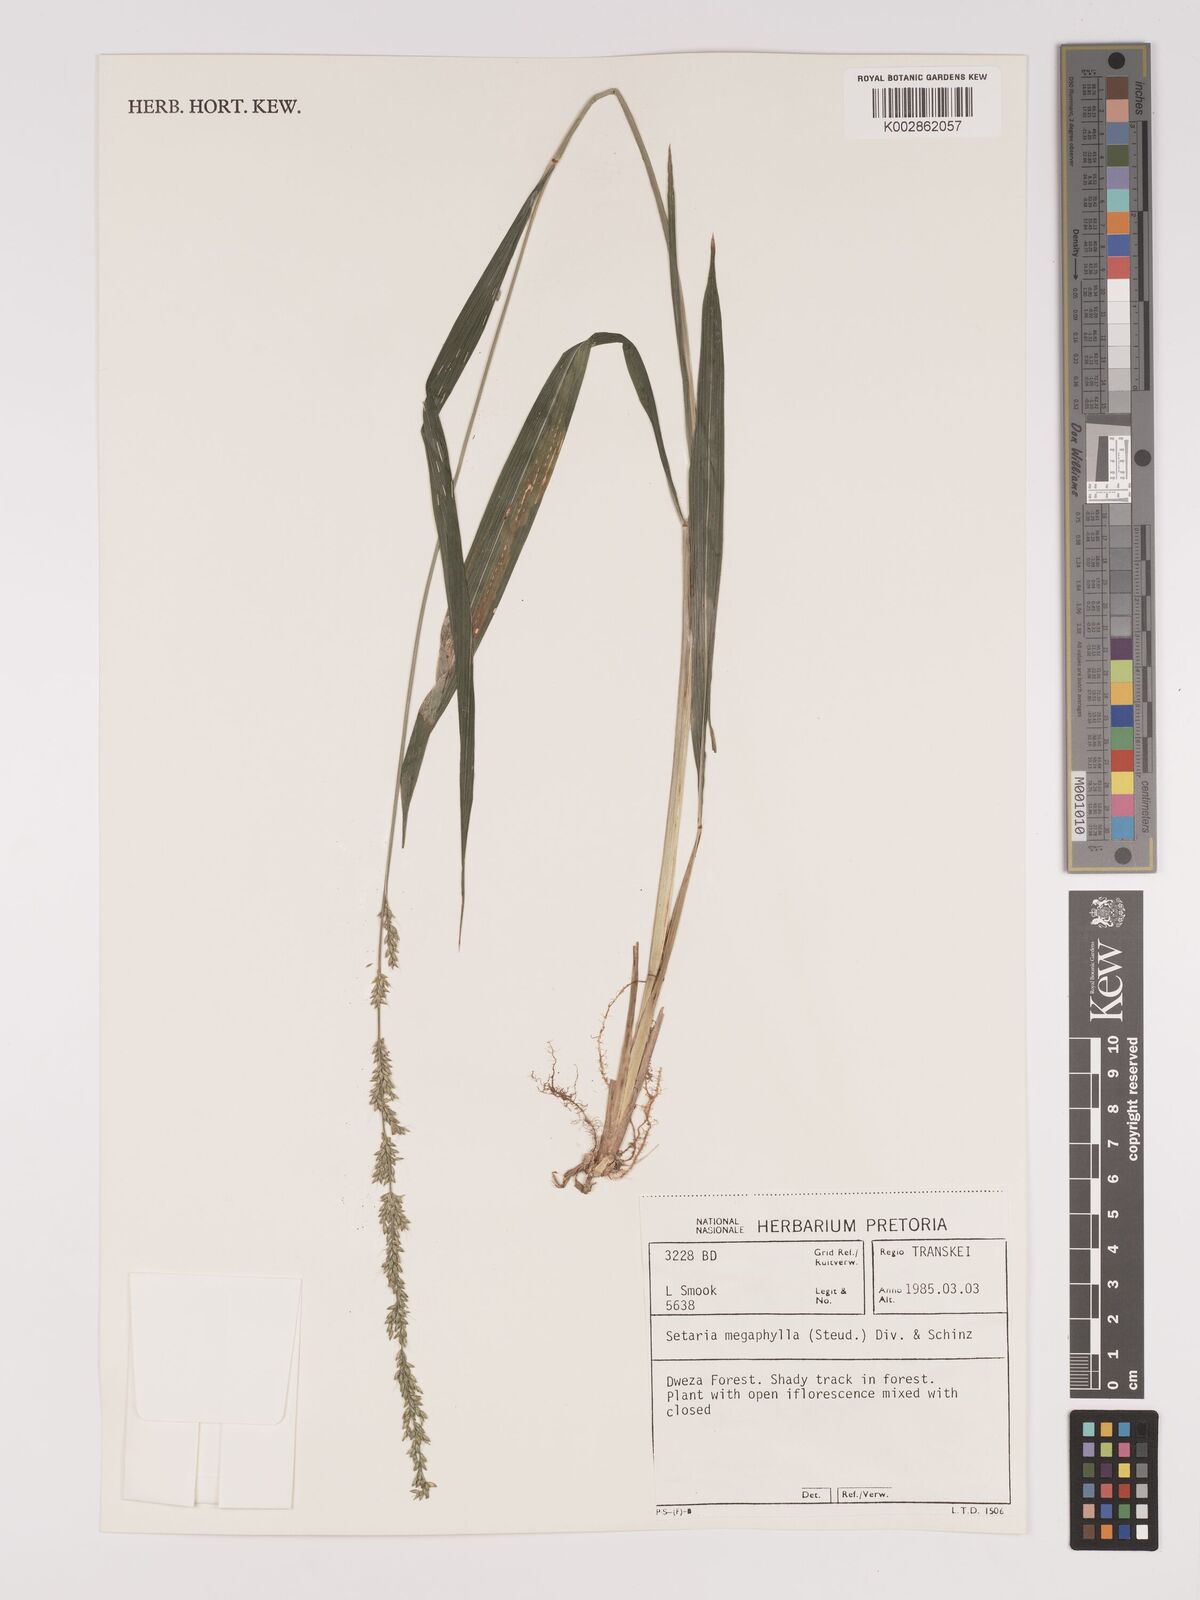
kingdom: Plantae
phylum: Tracheophyta
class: Liliopsida
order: Poales
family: Poaceae
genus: Setaria
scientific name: Setaria megaphylla
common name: Bigleaf bristlegrass
